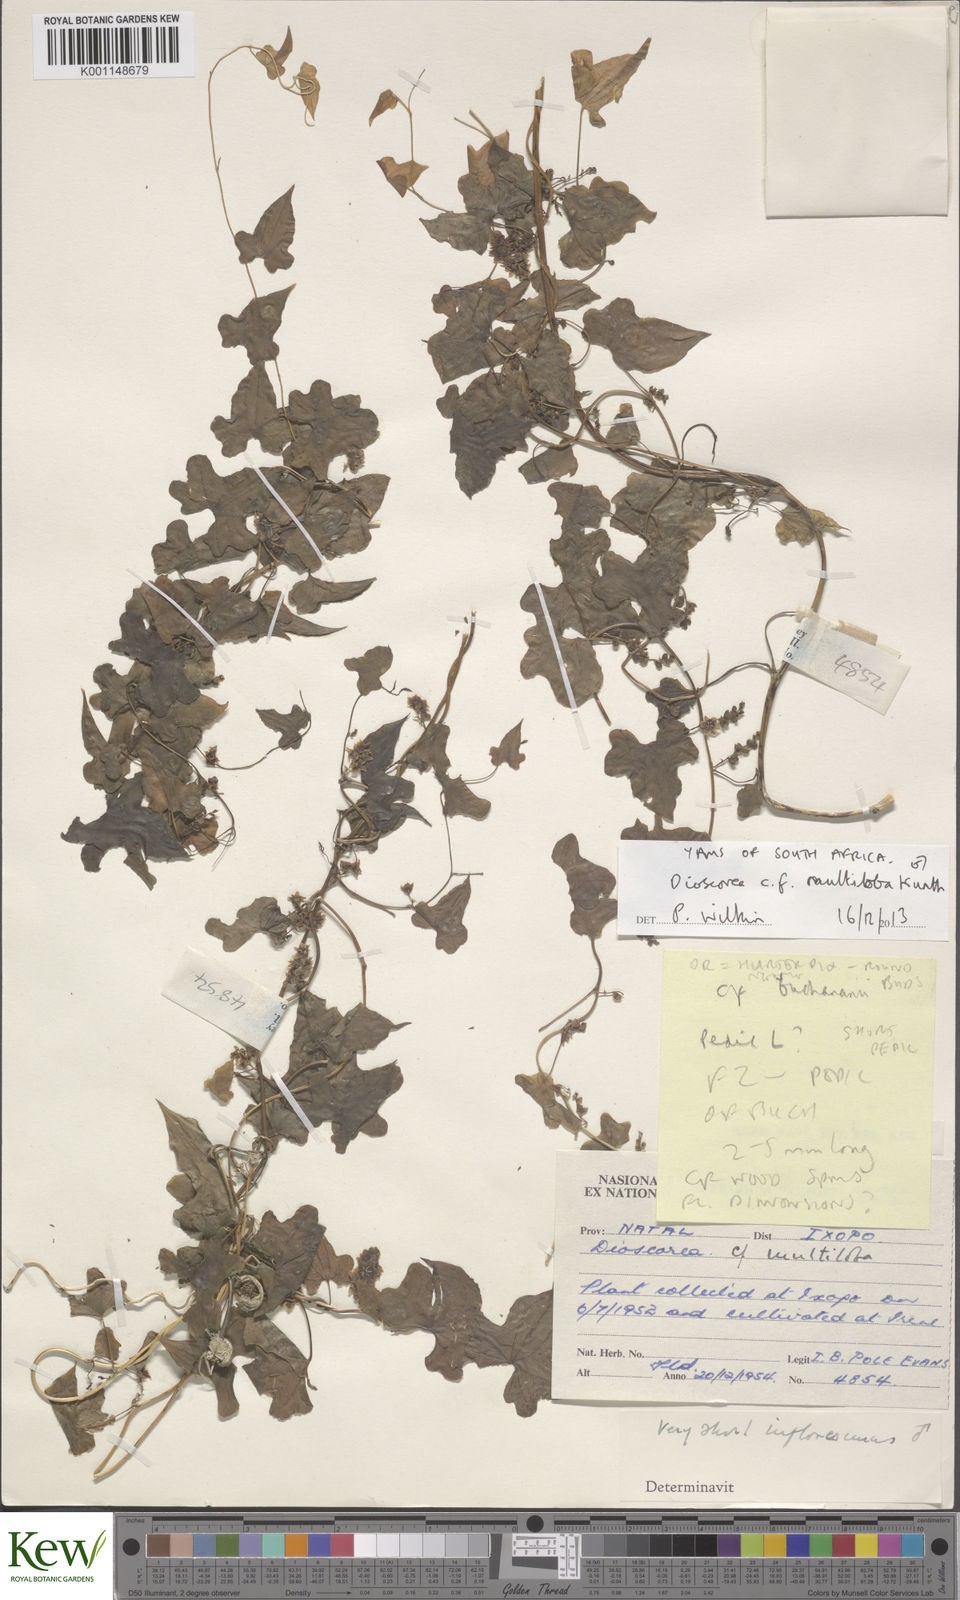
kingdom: Plantae
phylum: Tracheophyta
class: Liliopsida
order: Dioscoreales
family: Dioscoreaceae
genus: Dioscorea
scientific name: Dioscorea multiloba
